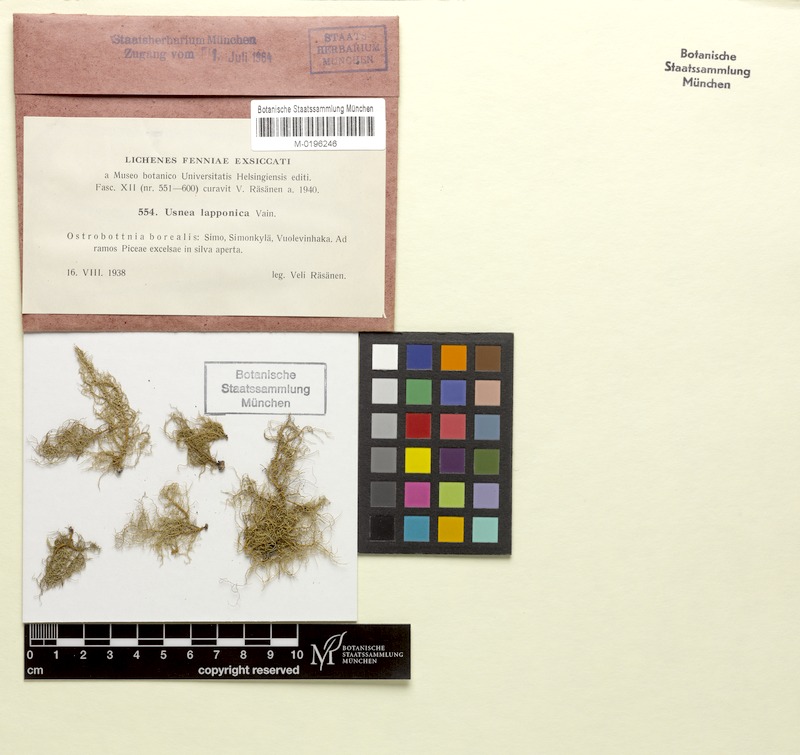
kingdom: Fungi
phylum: Ascomycota
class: Lecanoromycetes
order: Lecanorales
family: Parmeliaceae
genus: Usnea
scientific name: Usnea lapponica
